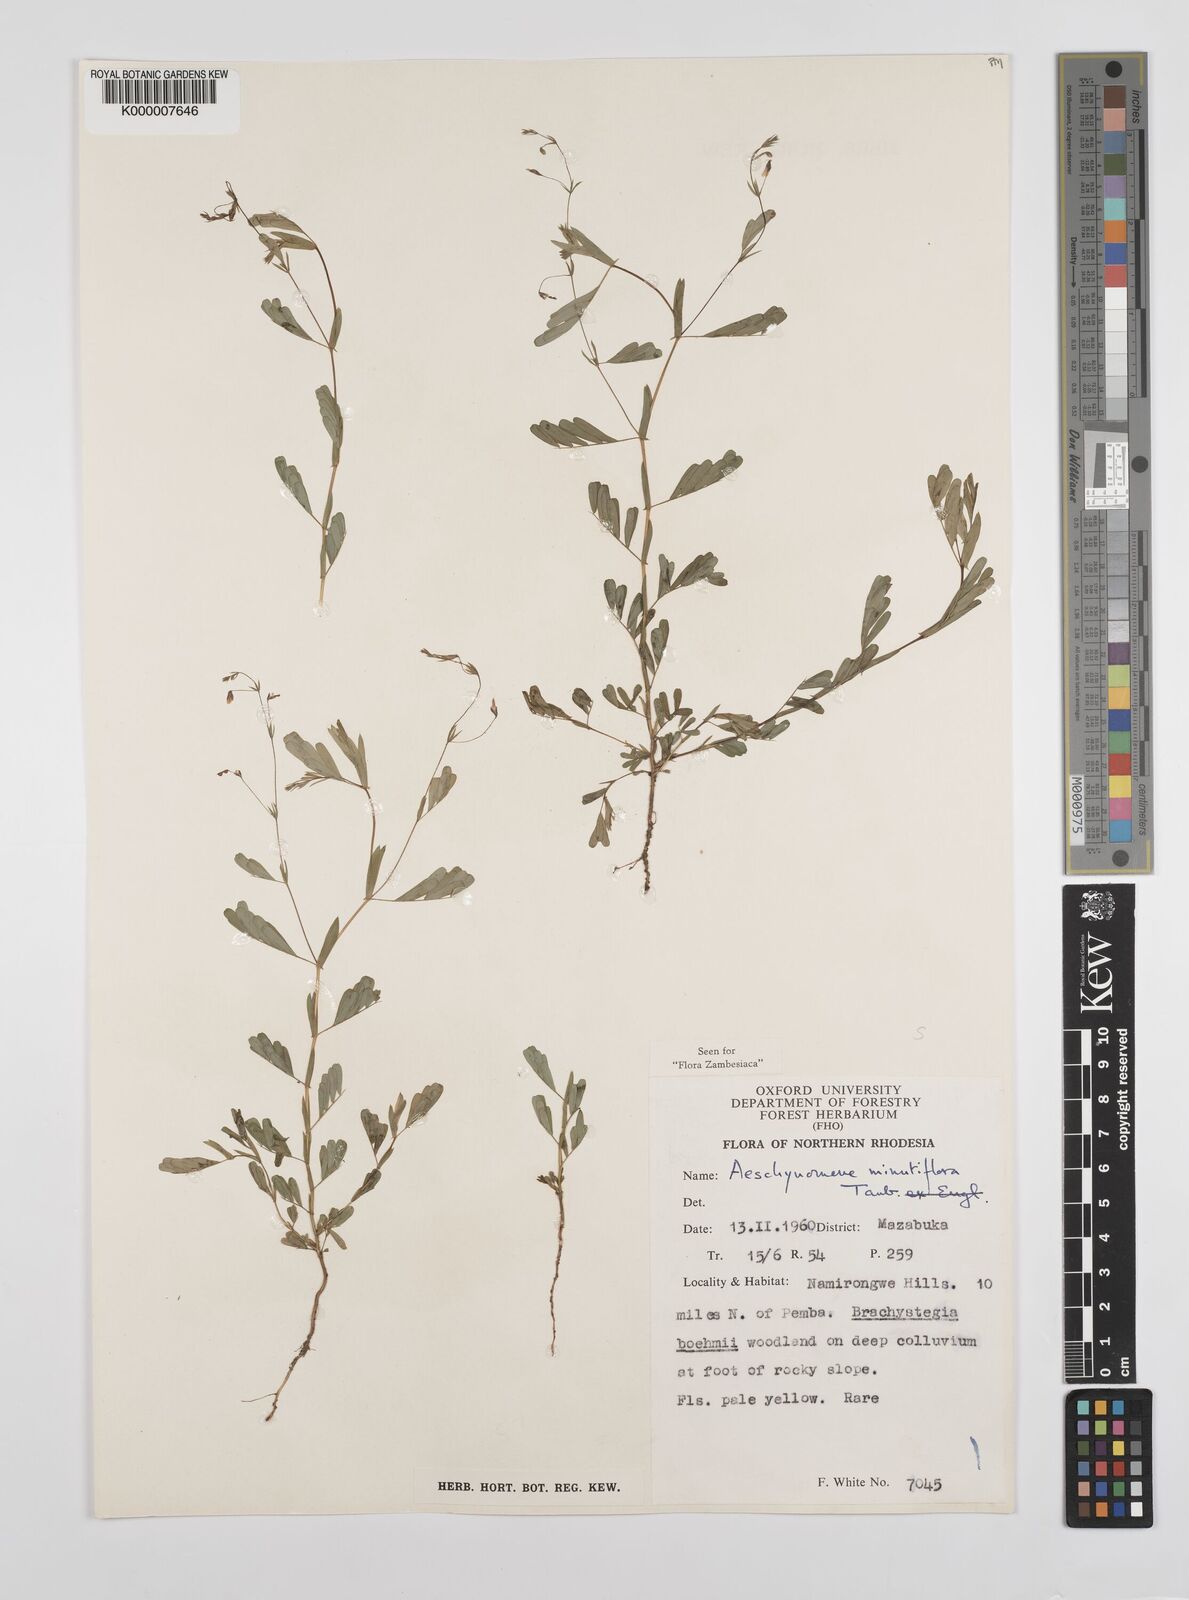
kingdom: Plantae
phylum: Tracheophyta
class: Magnoliopsida
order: Fabales
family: Fabaceae
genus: Aeschynomene
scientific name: Aeschynomene minutiflora
